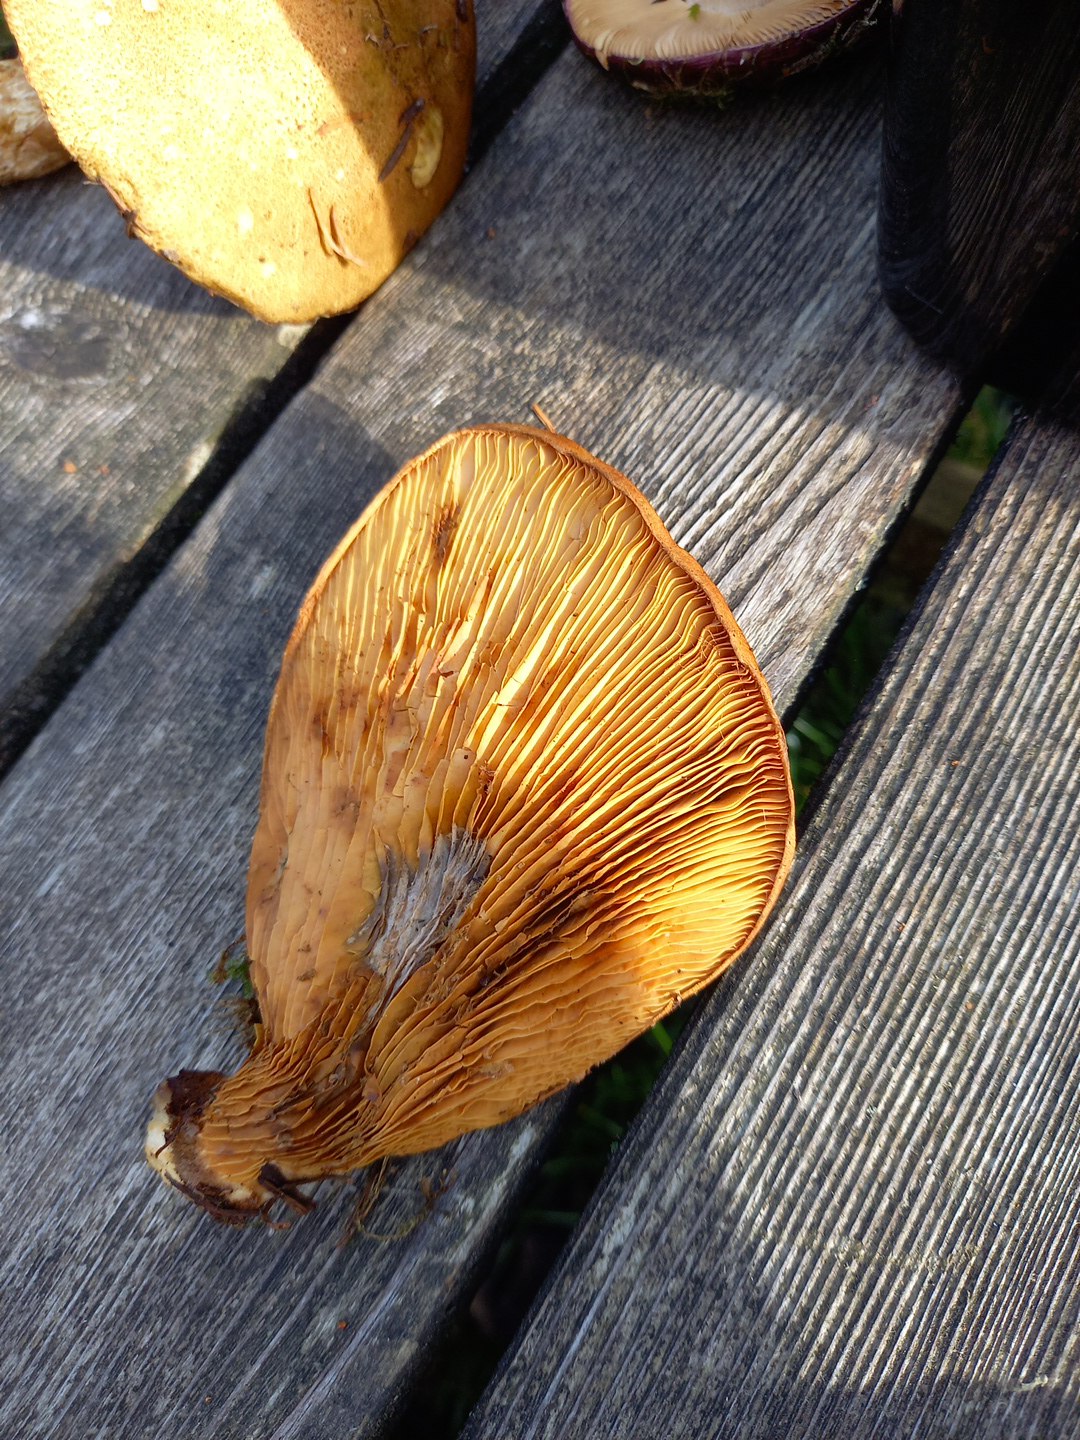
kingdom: Fungi
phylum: Basidiomycota
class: Agaricomycetes
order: Boletales
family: Tapinellaceae
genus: Tapinella
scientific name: Tapinella atrotomentosa
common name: sortfiltet viftesvamp
